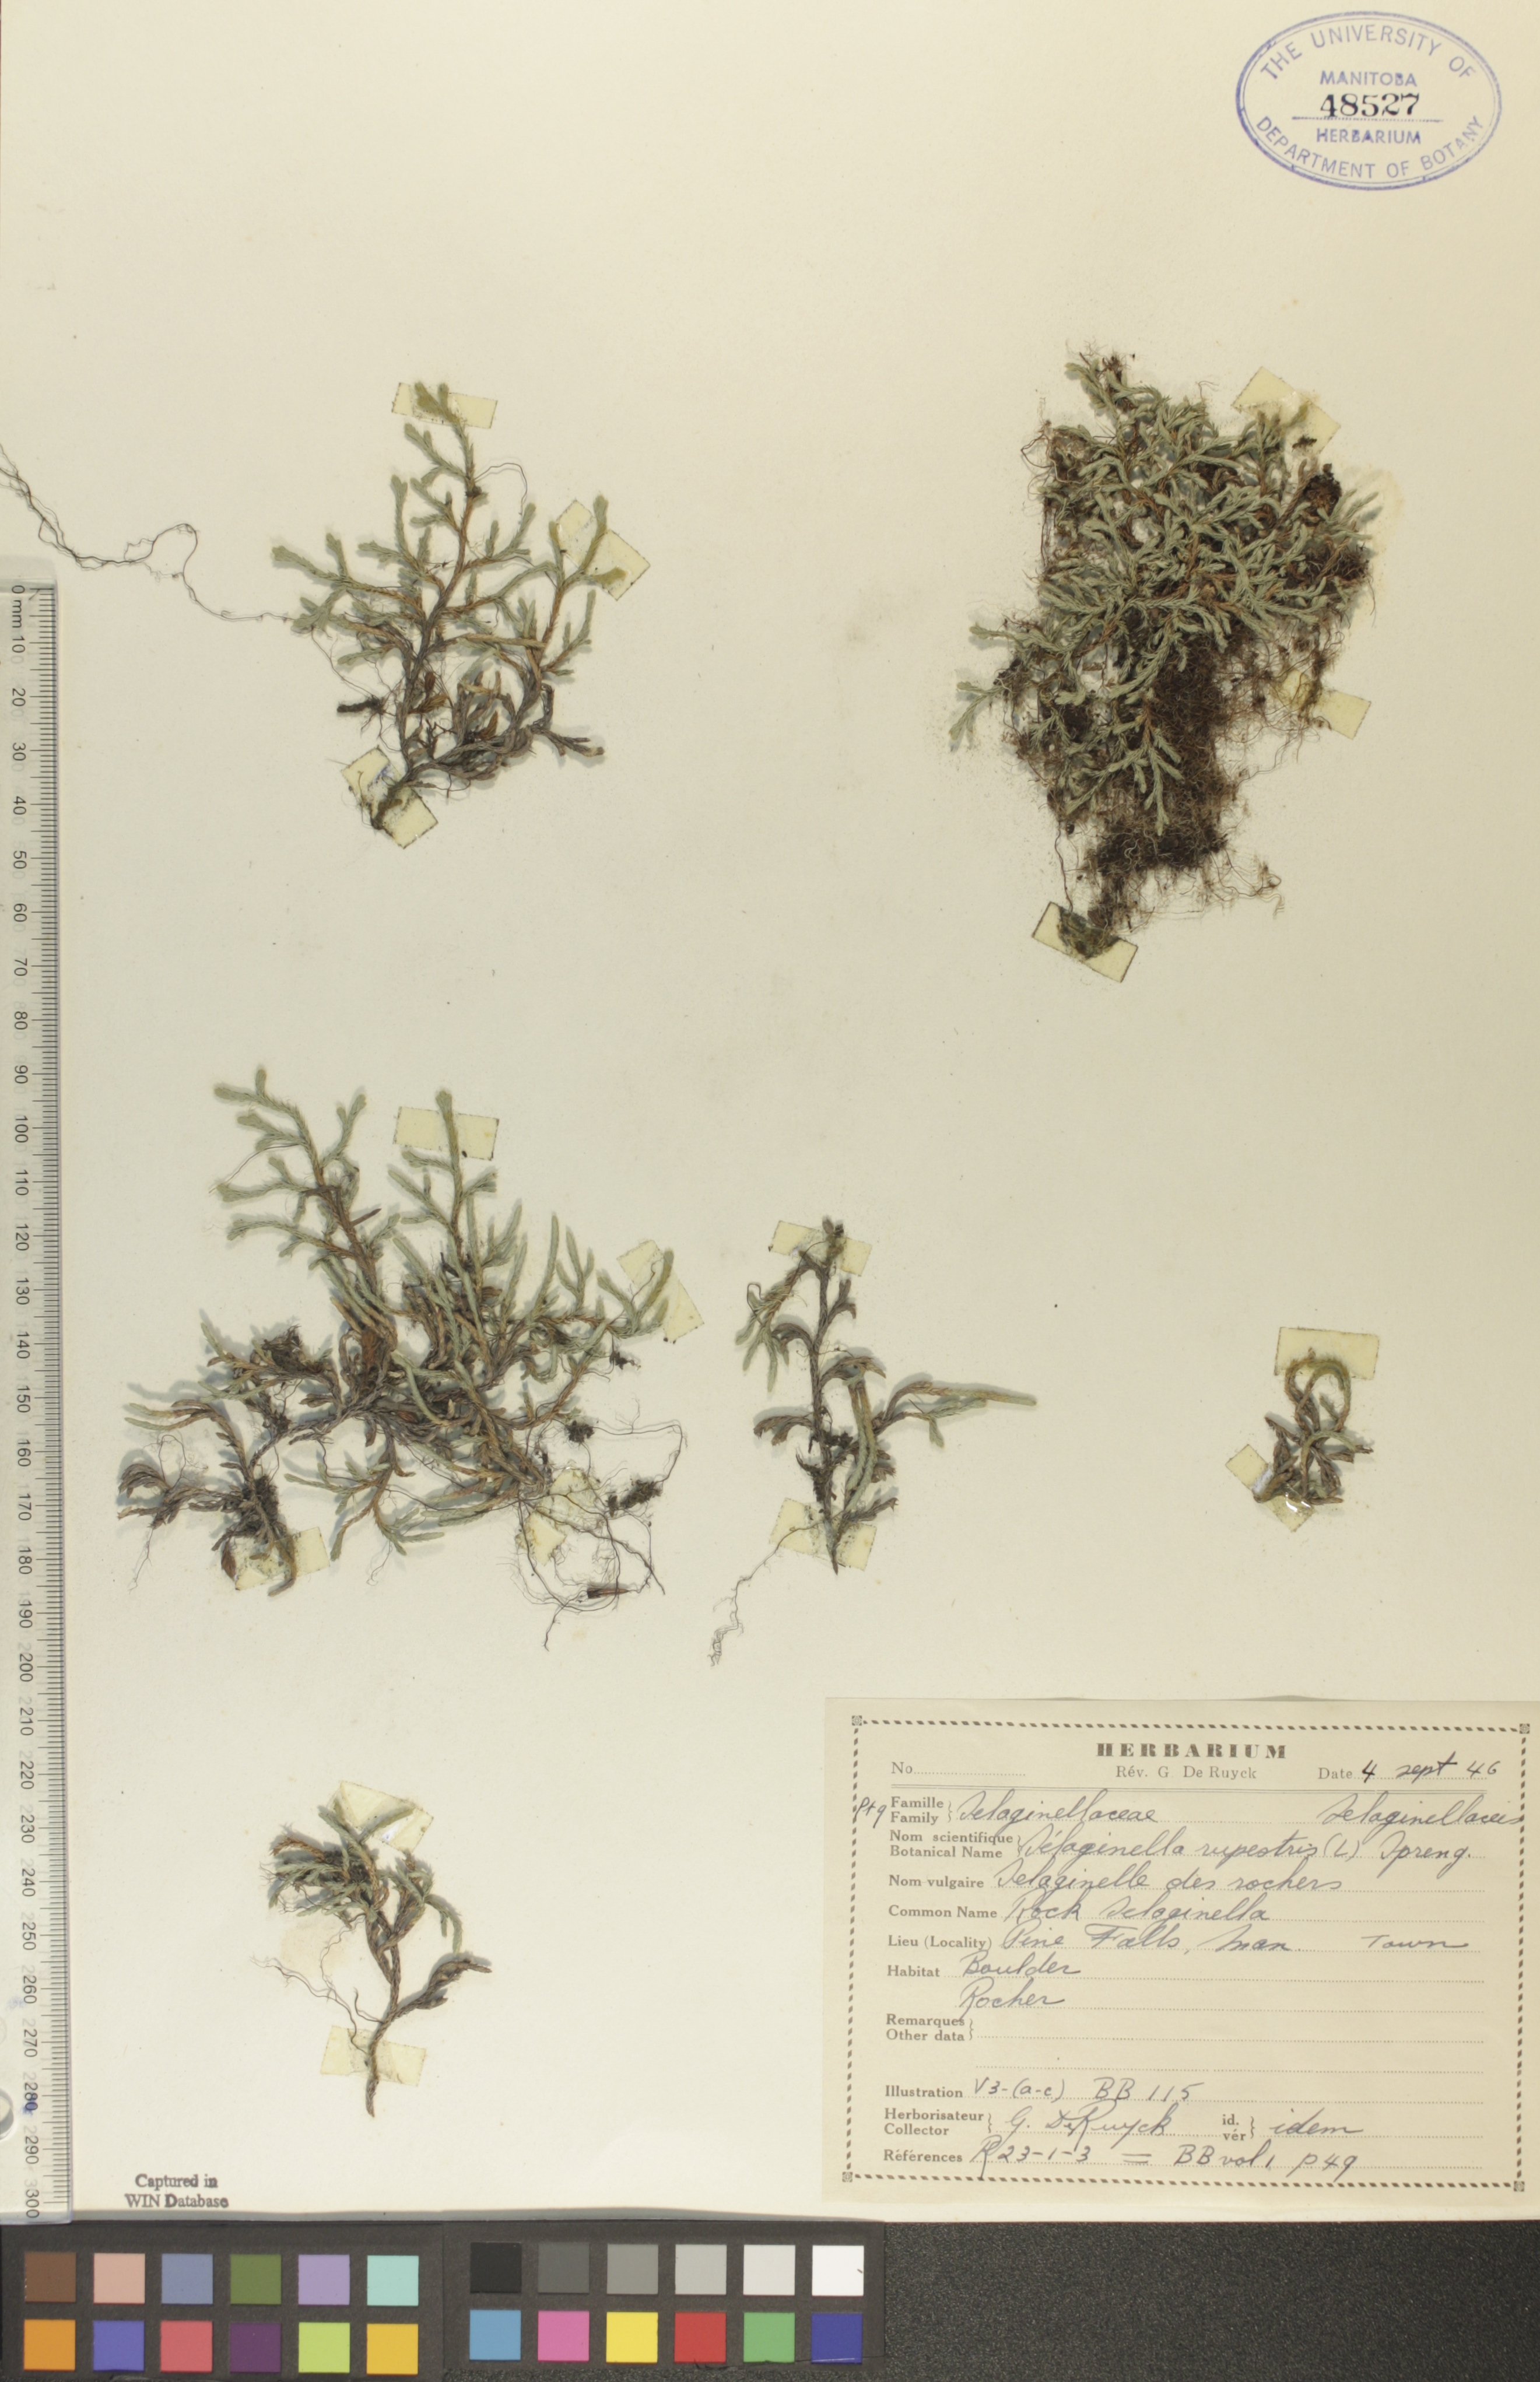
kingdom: Plantae
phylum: Tracheophyta
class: Lycopodiopsida
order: Selaginellales
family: Selaginellaceae
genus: Selaginella
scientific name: Selaginella rupestris
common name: Dwarf spikemoss
